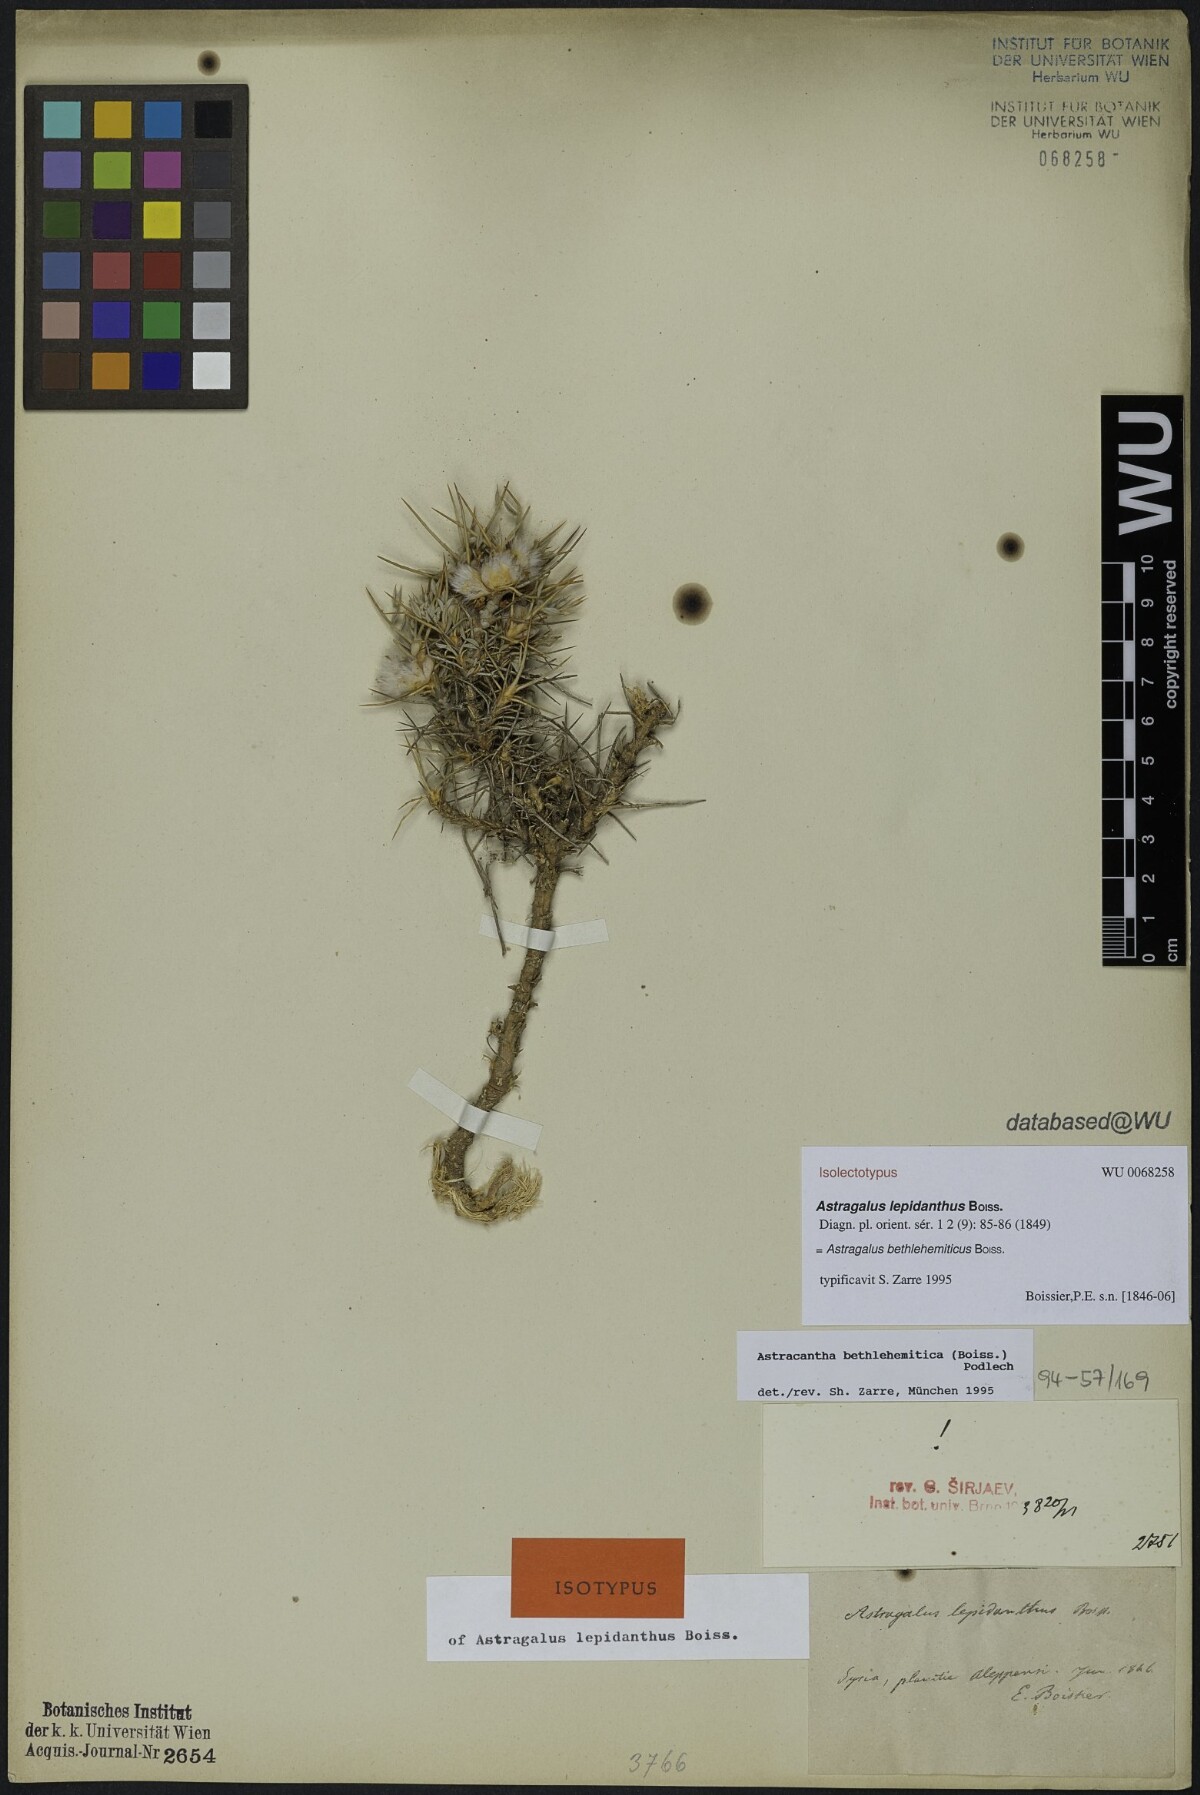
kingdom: Plantae
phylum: Tracheophyta
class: Magnoliopsida
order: Fabales
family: Fabaceae
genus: Astragalus
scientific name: Astragalus bethlehemiticus
